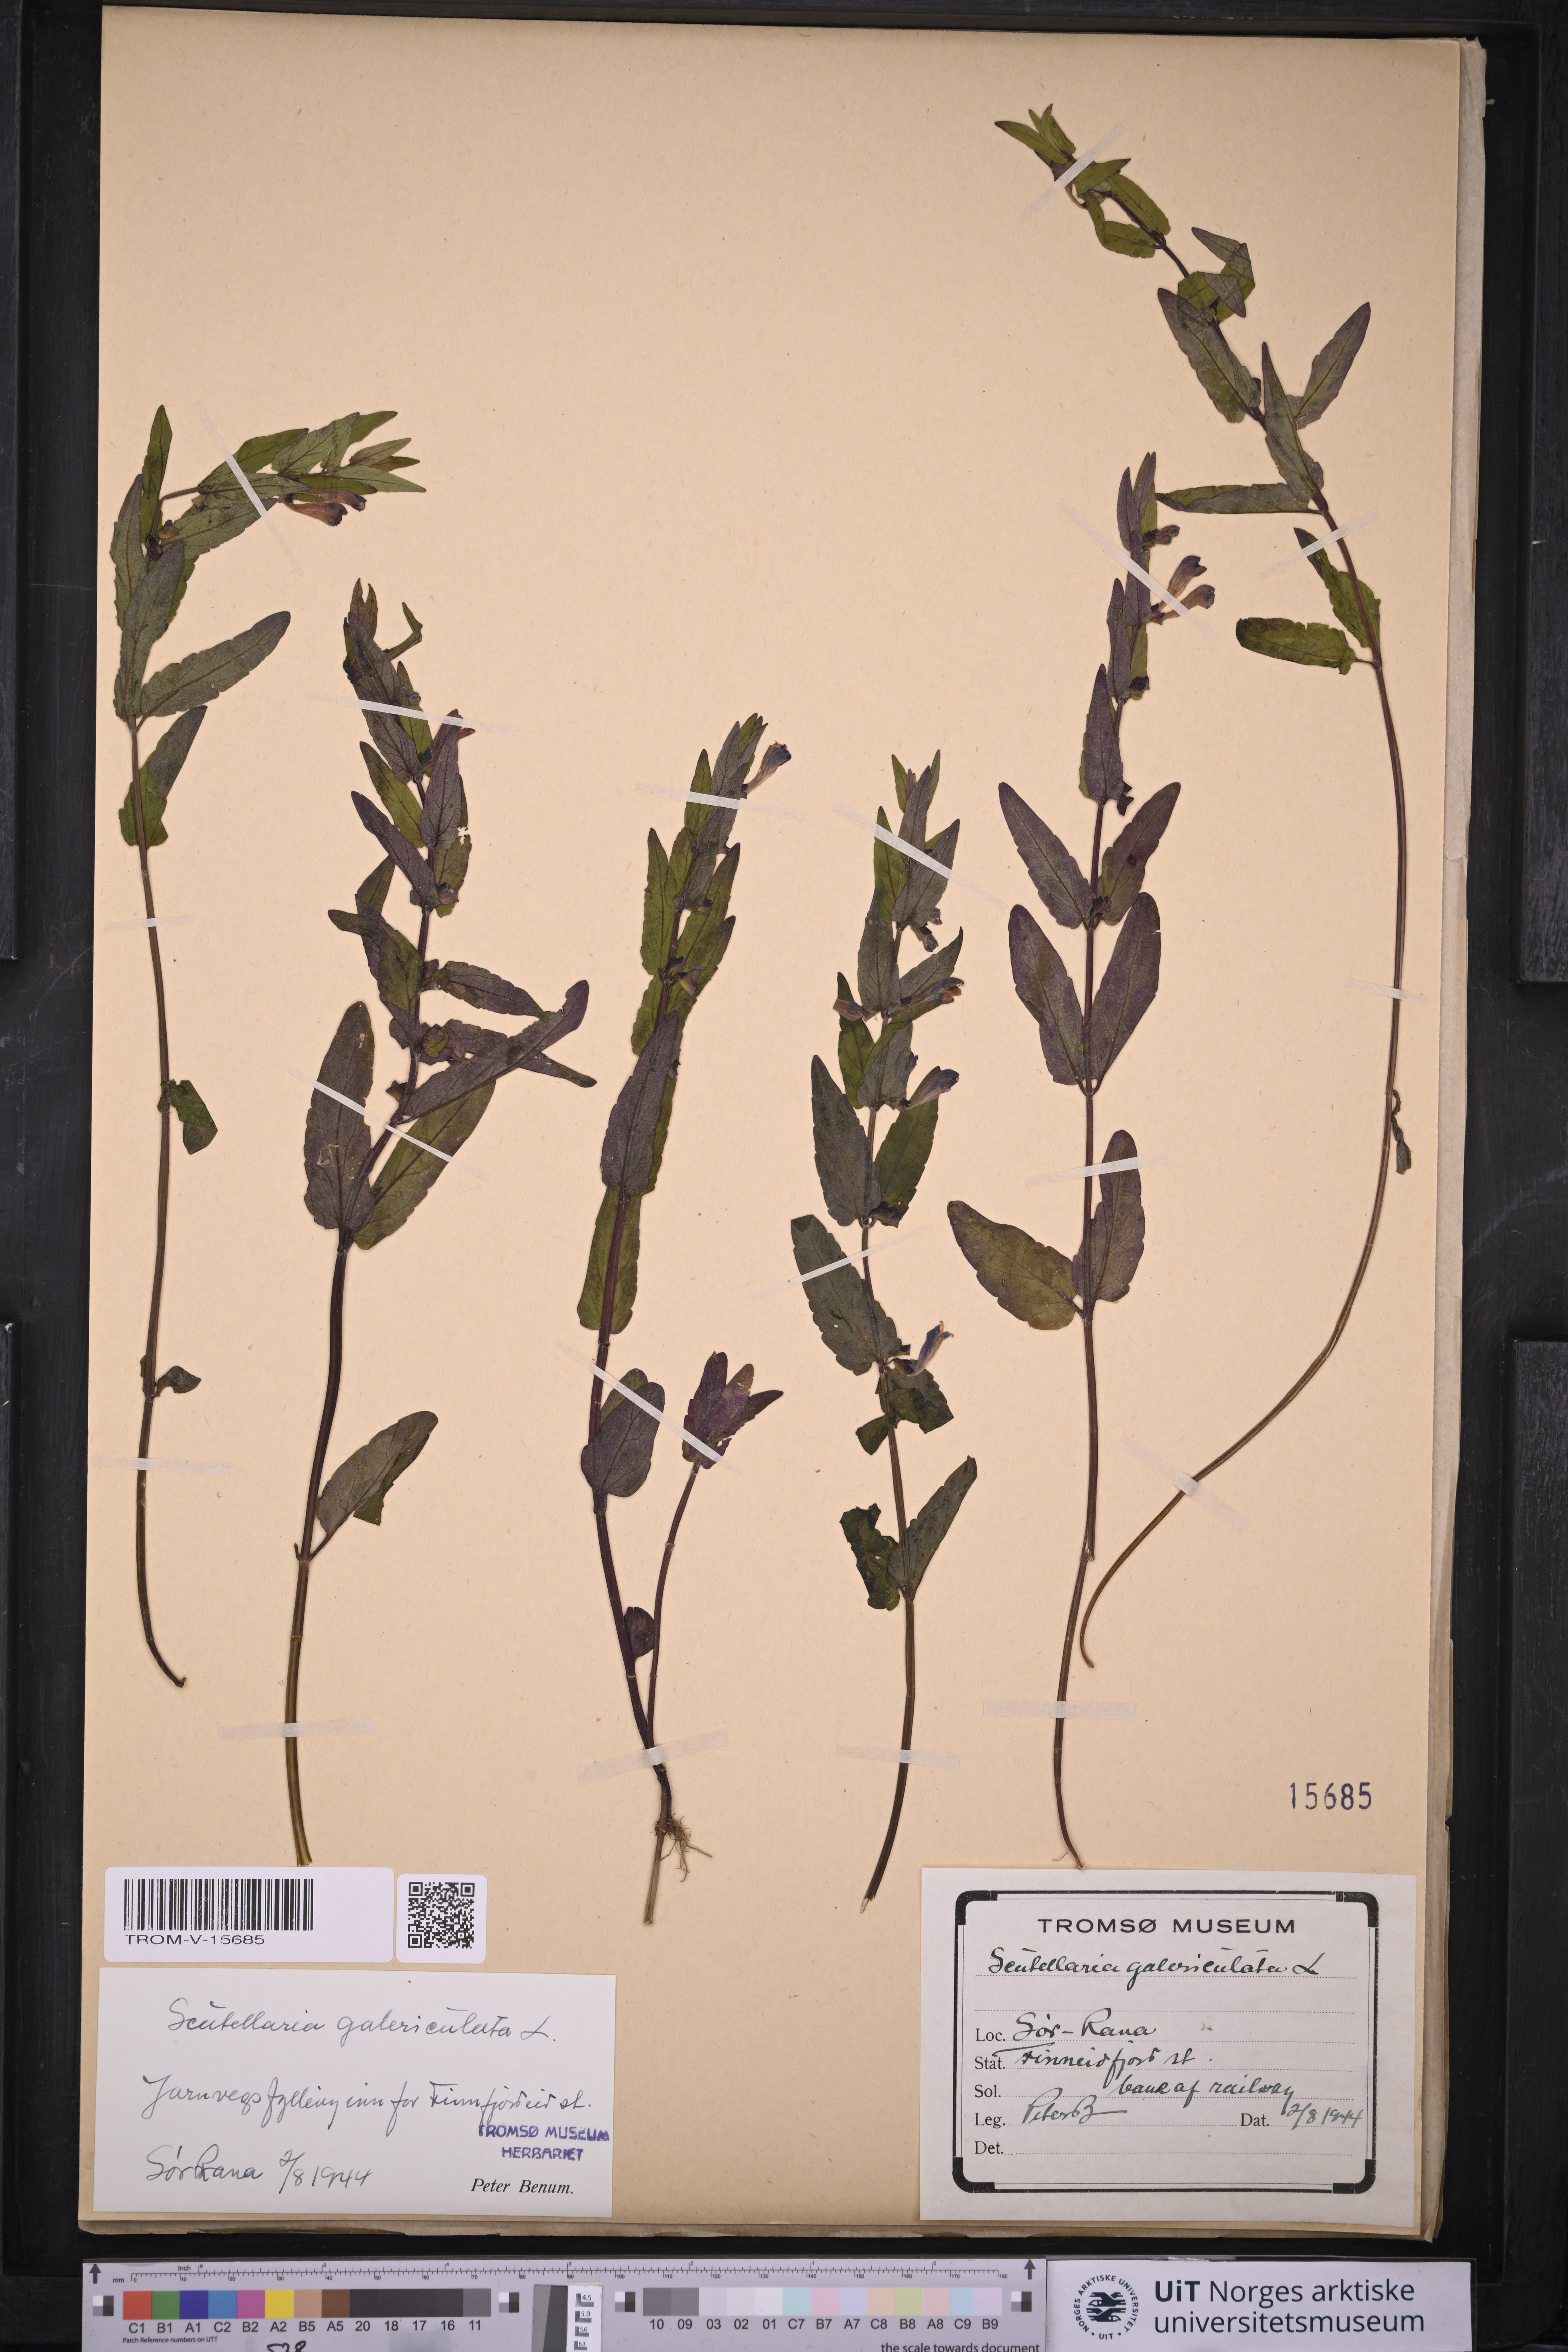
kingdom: Plantae
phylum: Tracheophyta
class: Magnoliopsida
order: Lamiales
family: Lamiaceae
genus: Scutellaria
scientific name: Scutellaria galericulata
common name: Skullcap
